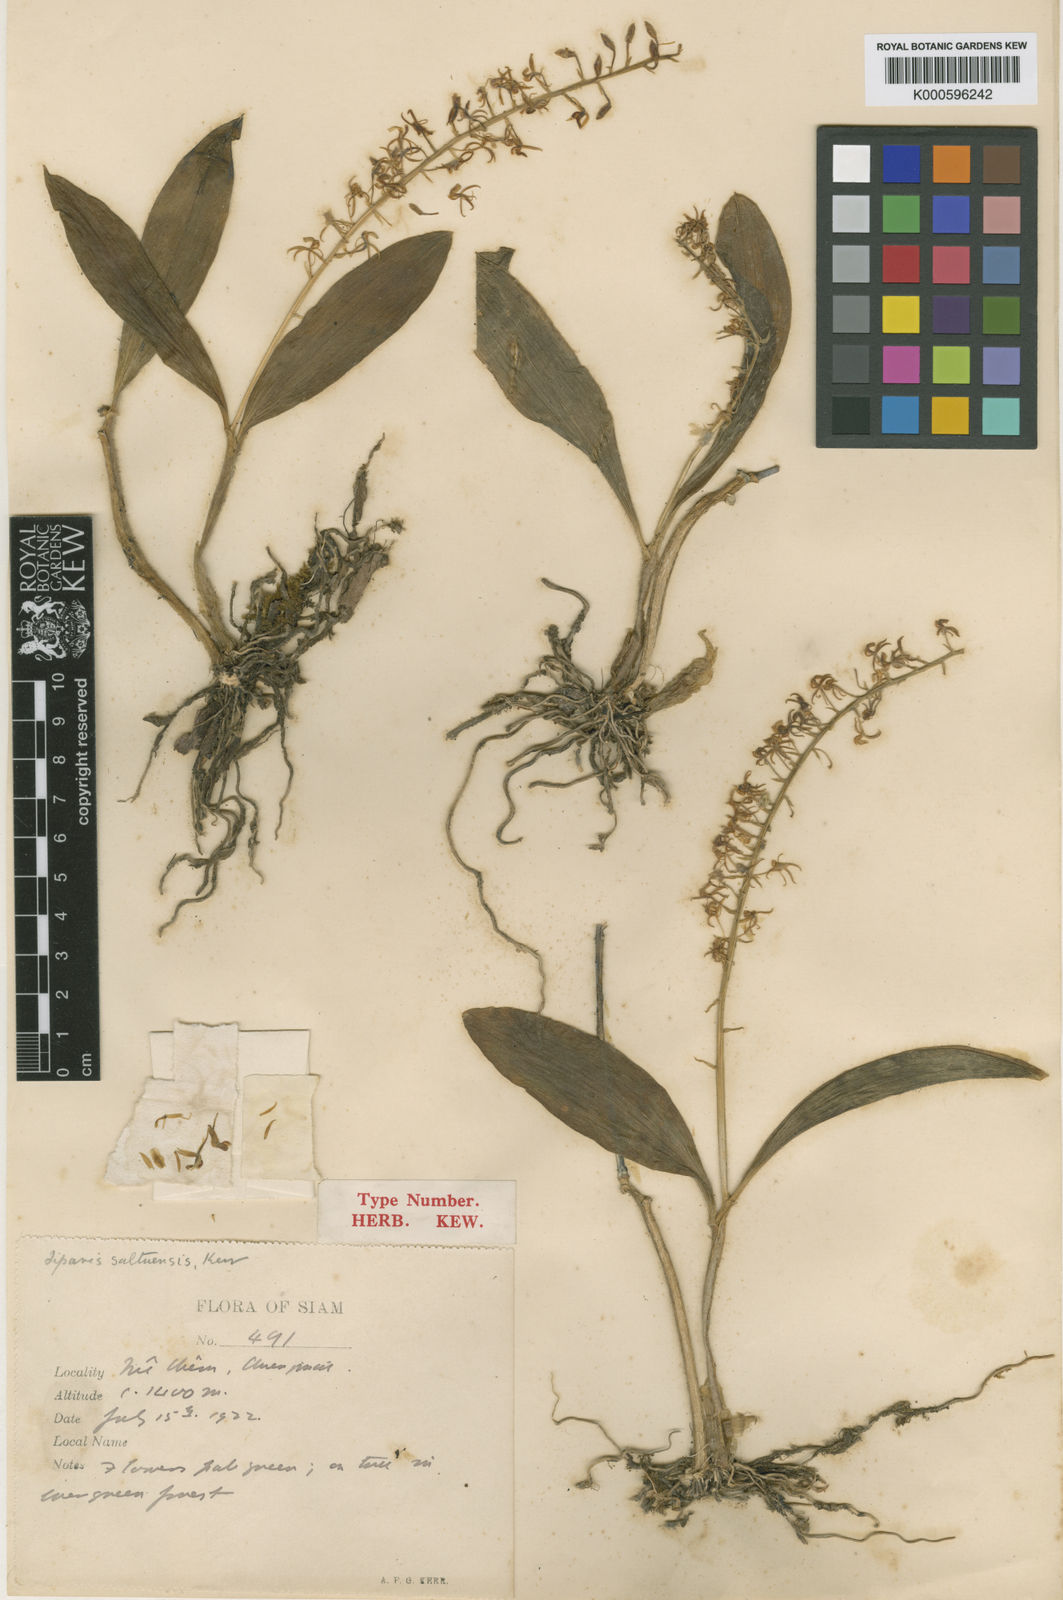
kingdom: Plantae
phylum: Tracheophyta
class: Liliopsida
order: Asparagales
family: Orchidaceae
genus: Liparis
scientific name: Liparis bistriata
